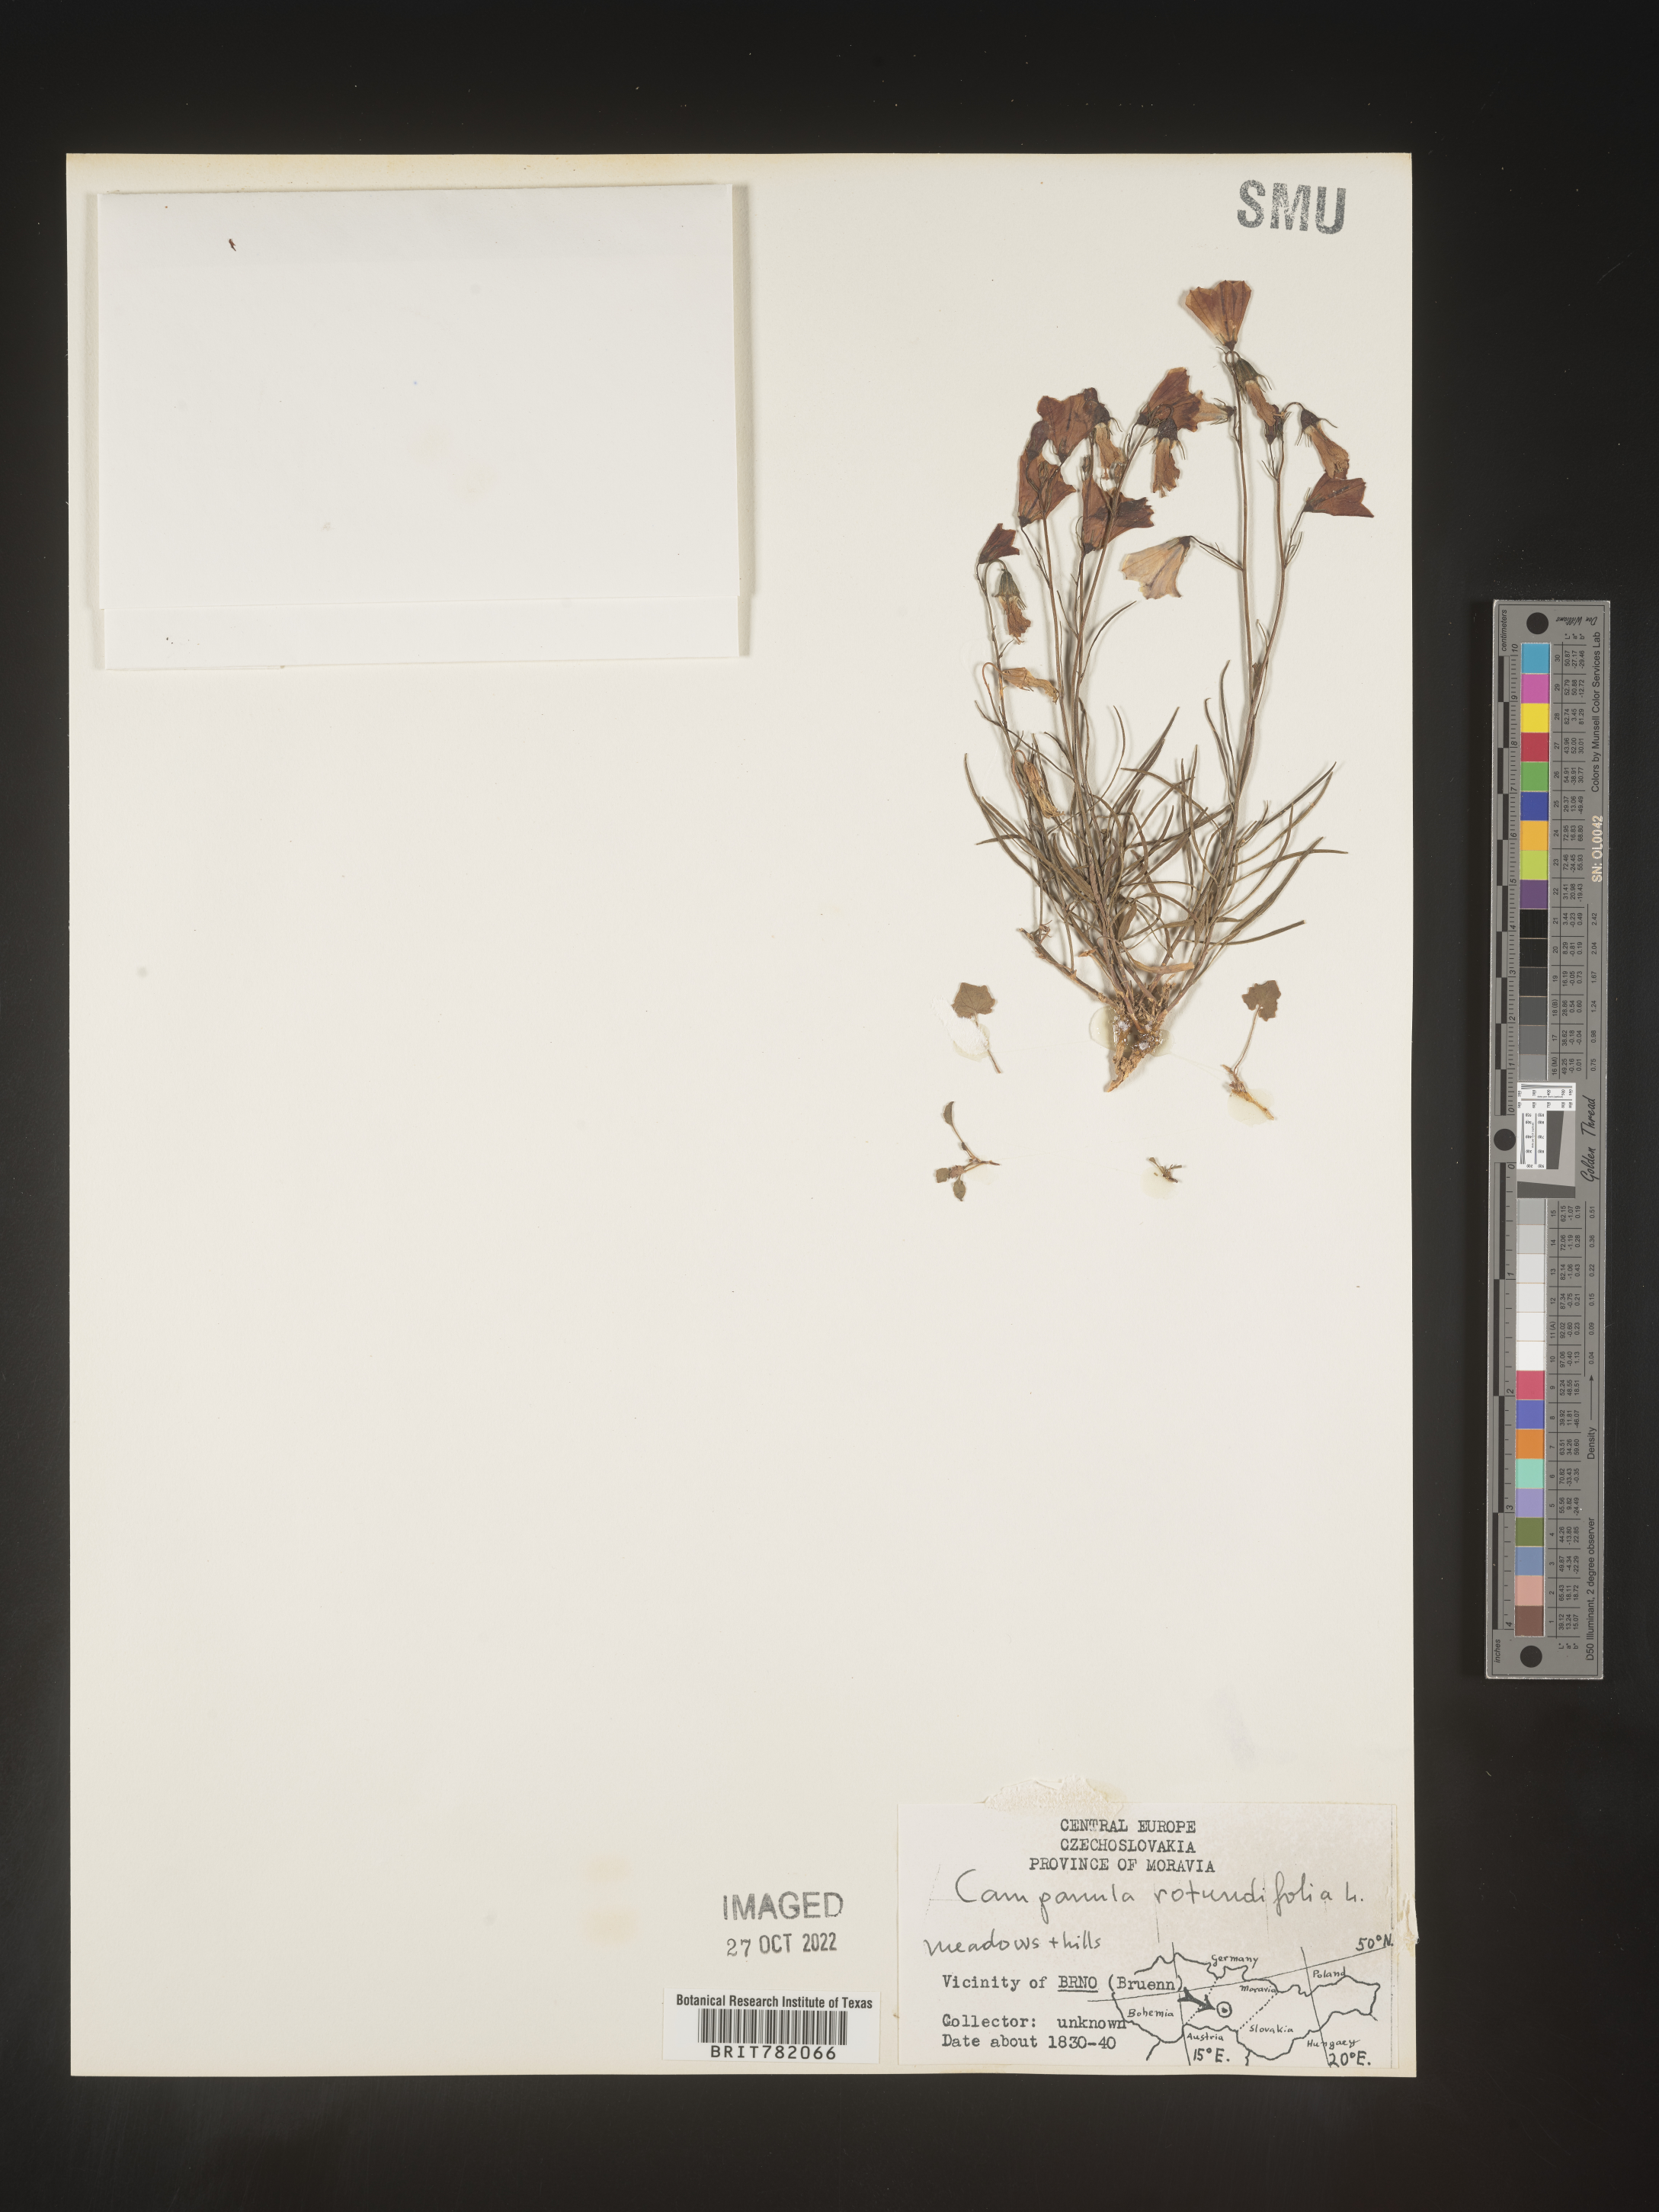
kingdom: Plantae
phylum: Tracheophyta
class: Magnoliopsida
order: Asterales
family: Campanulaceae
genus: Campanula
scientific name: Campanula rotundifolia
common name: Harebell
